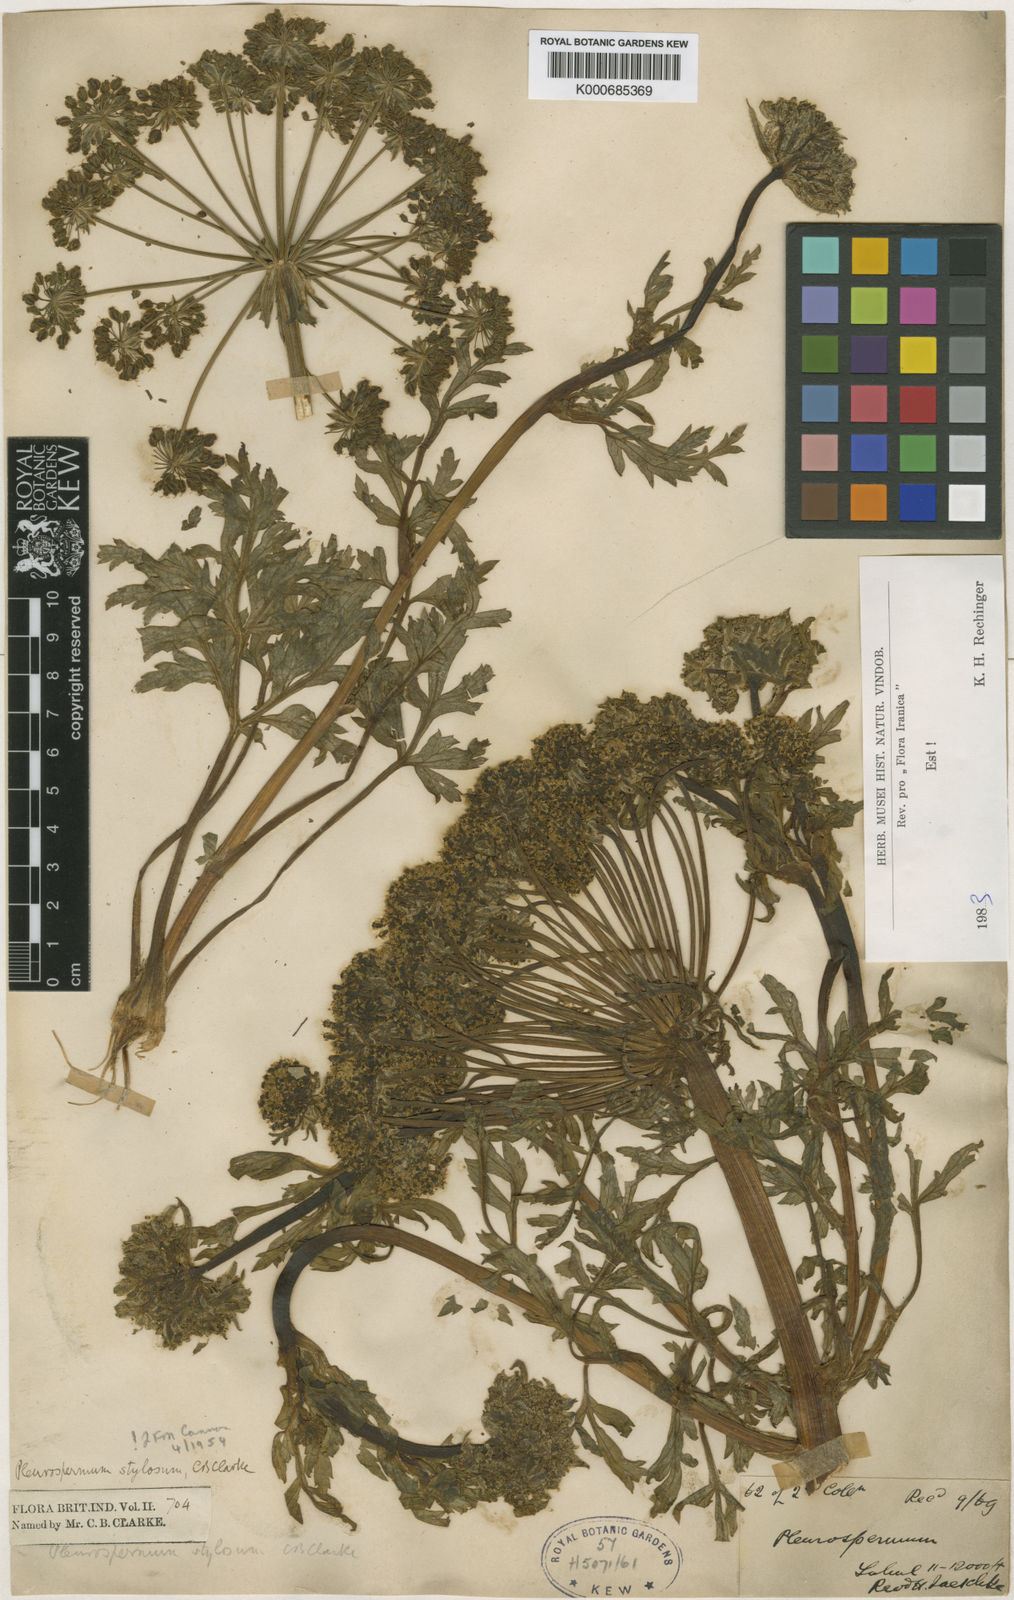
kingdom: Plantae
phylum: Tracheophyta
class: Magnoliopsida
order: Apiales
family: Apiaceae
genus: Aulacospermum
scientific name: Aulacospermum stylosum
